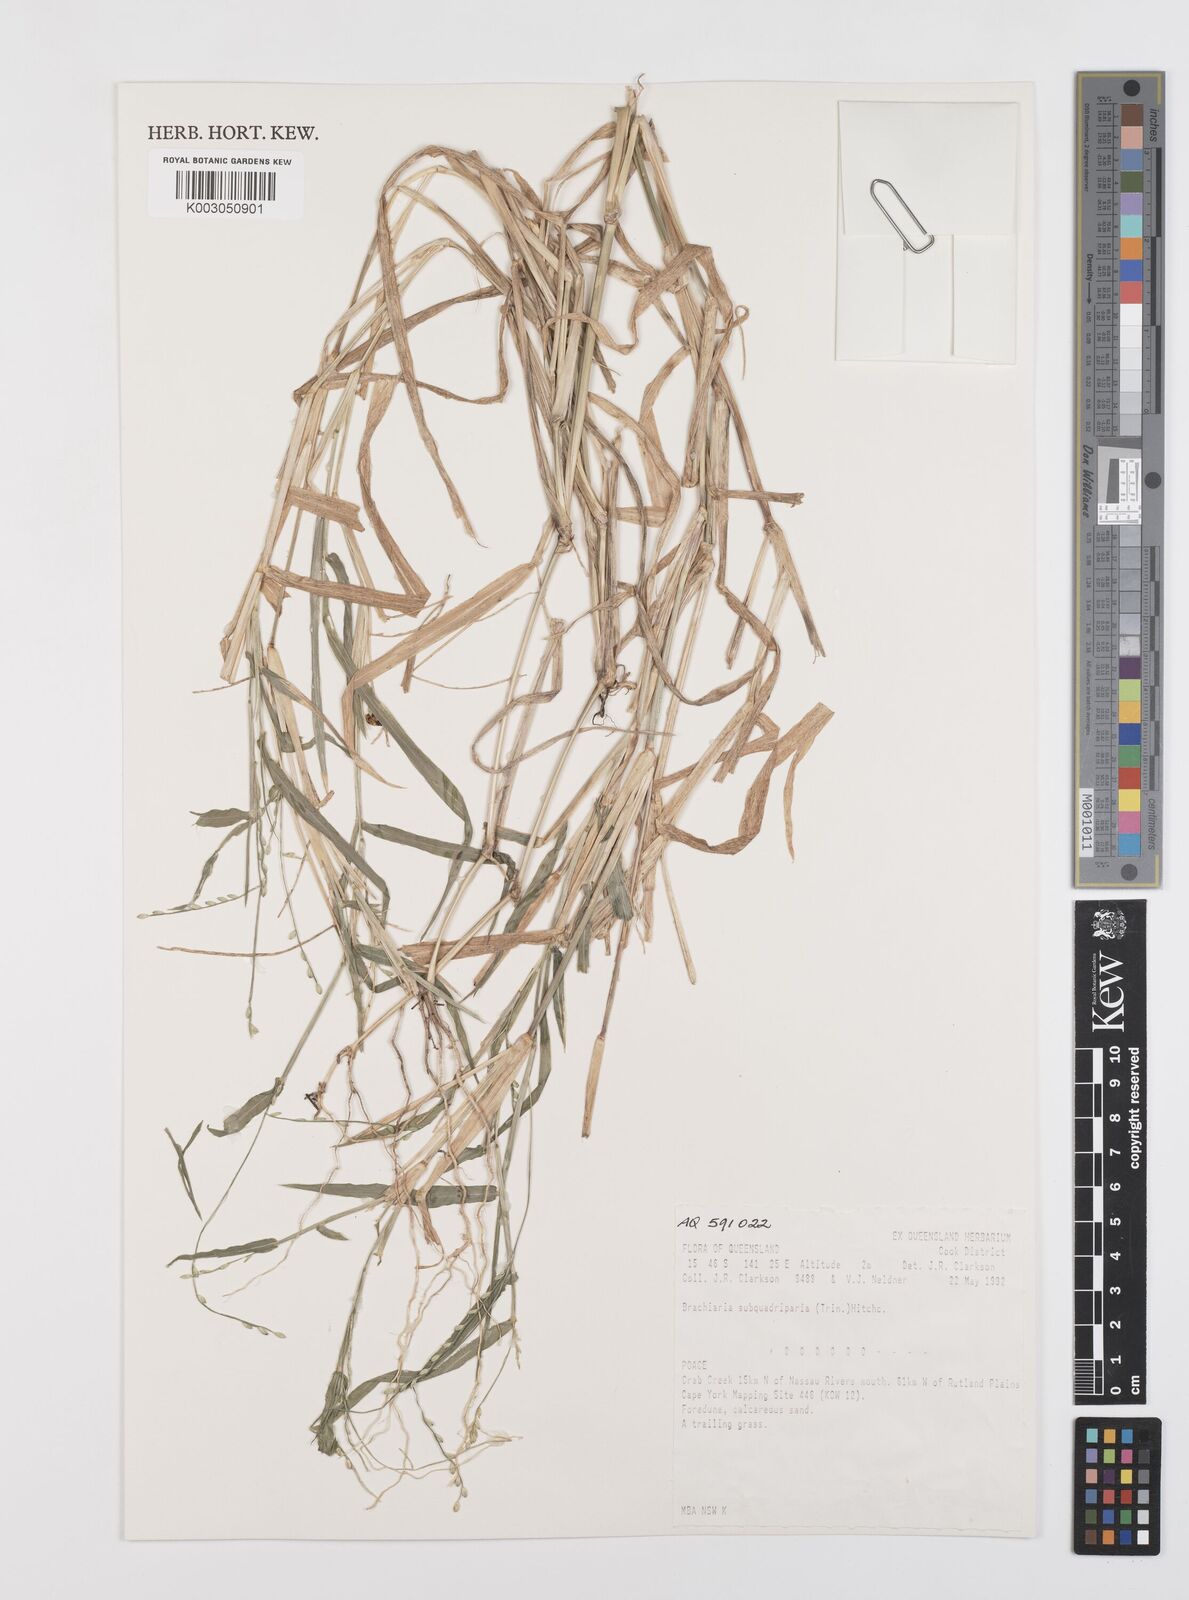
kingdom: Plantae
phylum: Tracheophyta
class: Liliopsida
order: Poales
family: Poaceae
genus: Urochloa
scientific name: Urochloa subquadripara
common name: Armgrass millet
